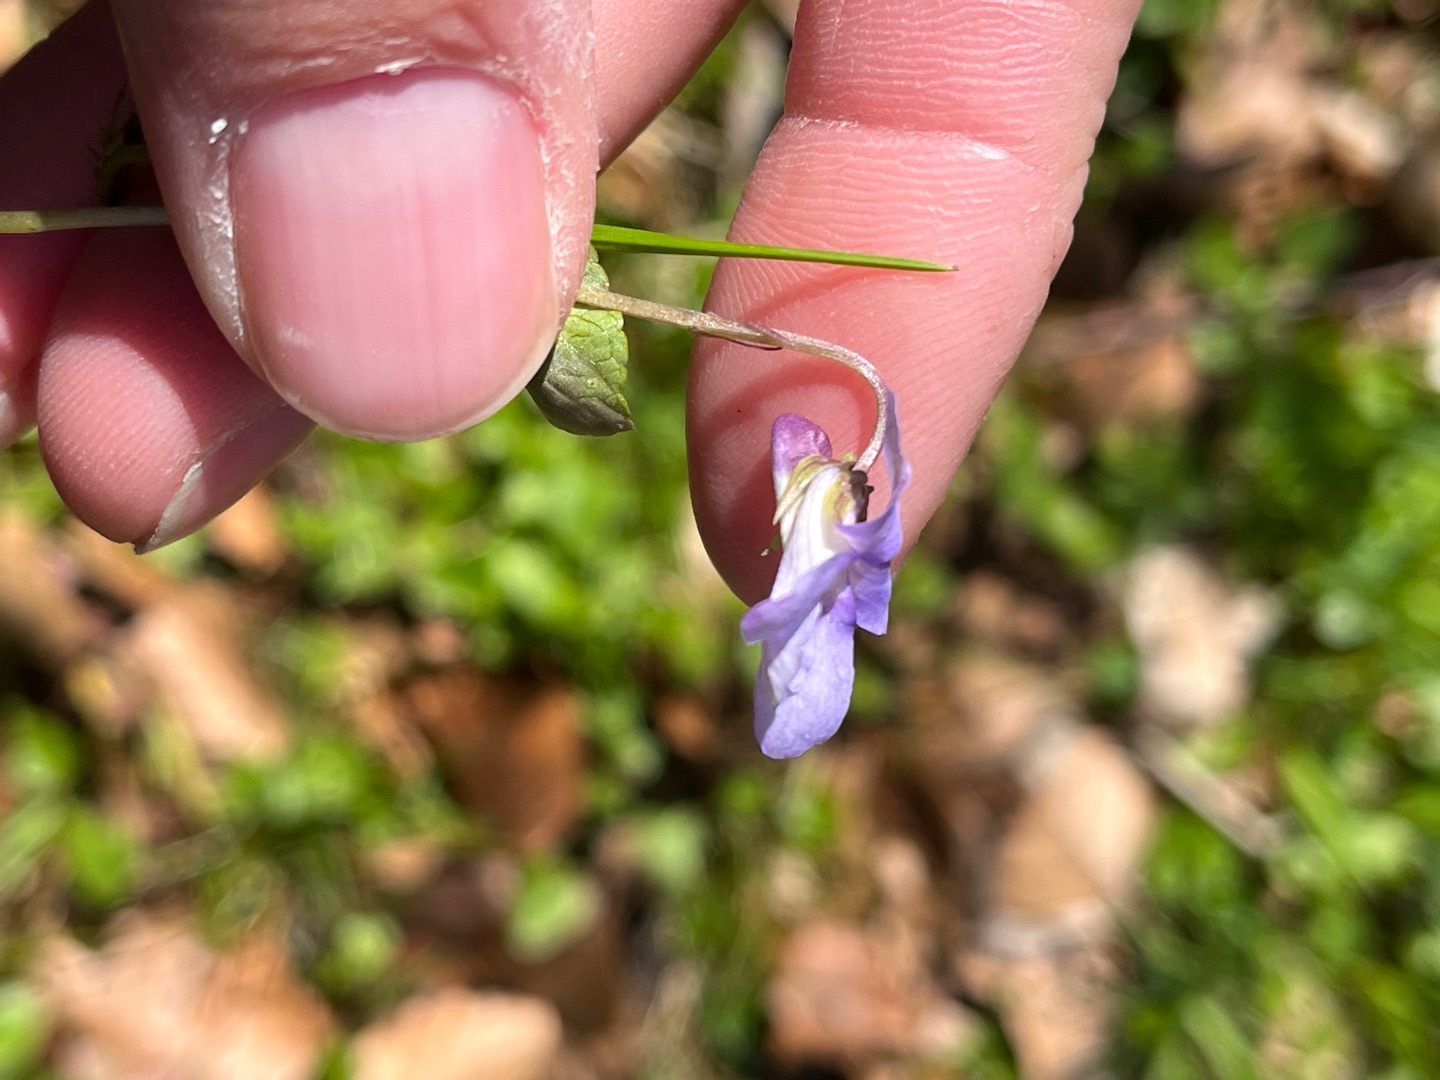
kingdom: Plantae
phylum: Tracheophyta
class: Magnoliopsida
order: Malpighiales
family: Violaceae
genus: Viola
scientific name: Viola reichenbachiana
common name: Skov-viol
